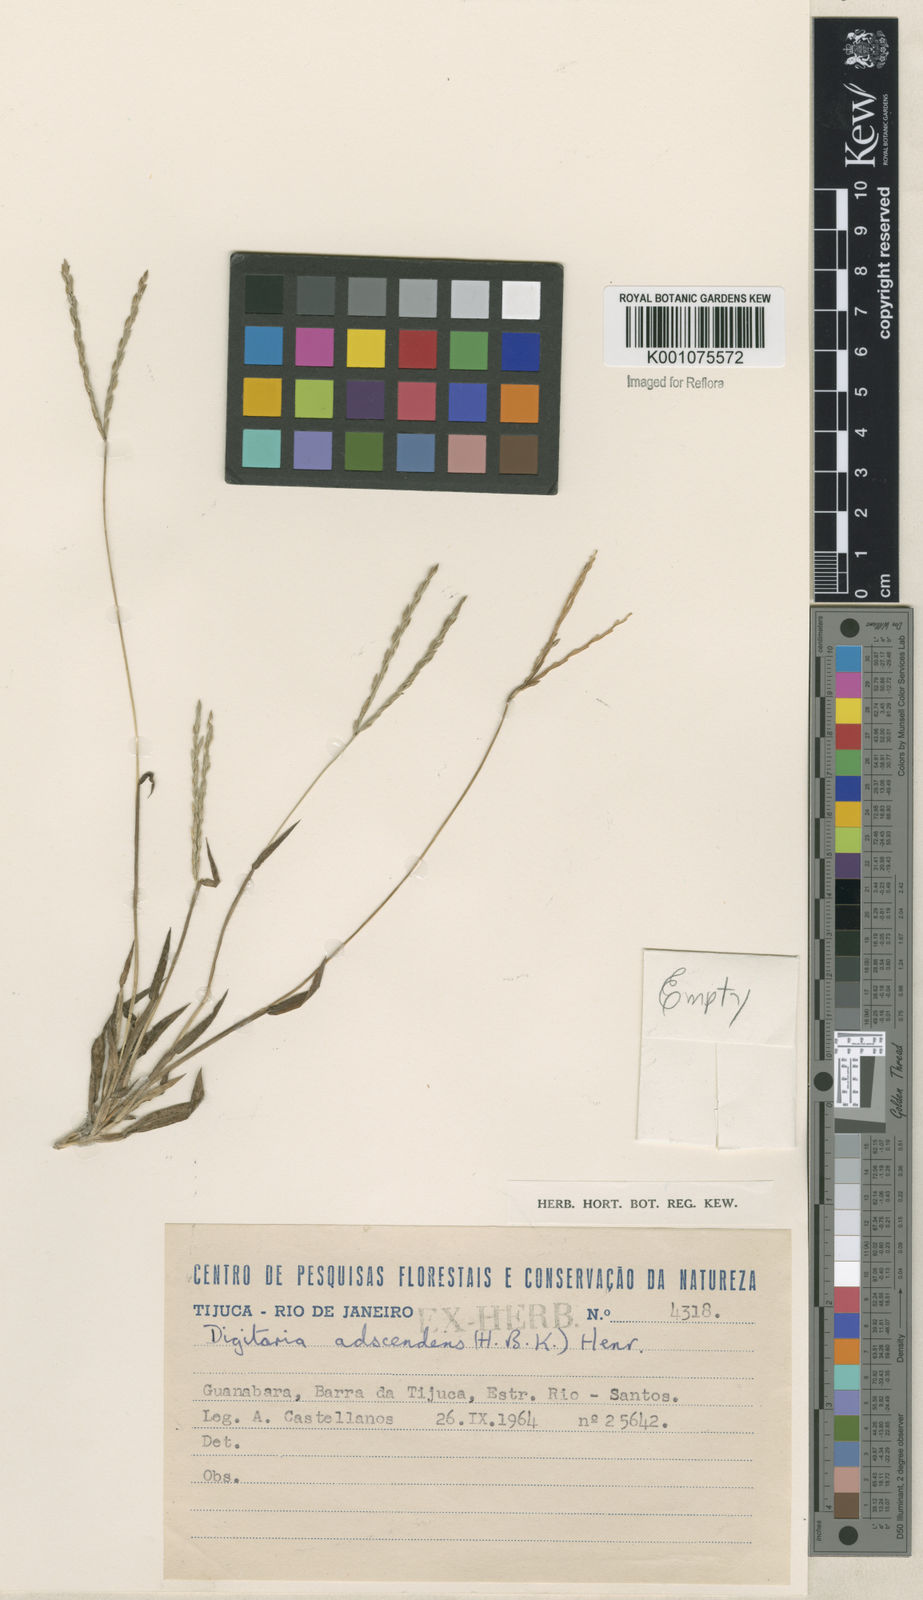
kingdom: Plantae
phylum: Tracheophyta
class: Liliopsida
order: Poales
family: Poaceae
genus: Digitaria
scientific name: Digitaria ciliaris
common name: Tropical finger-grass
